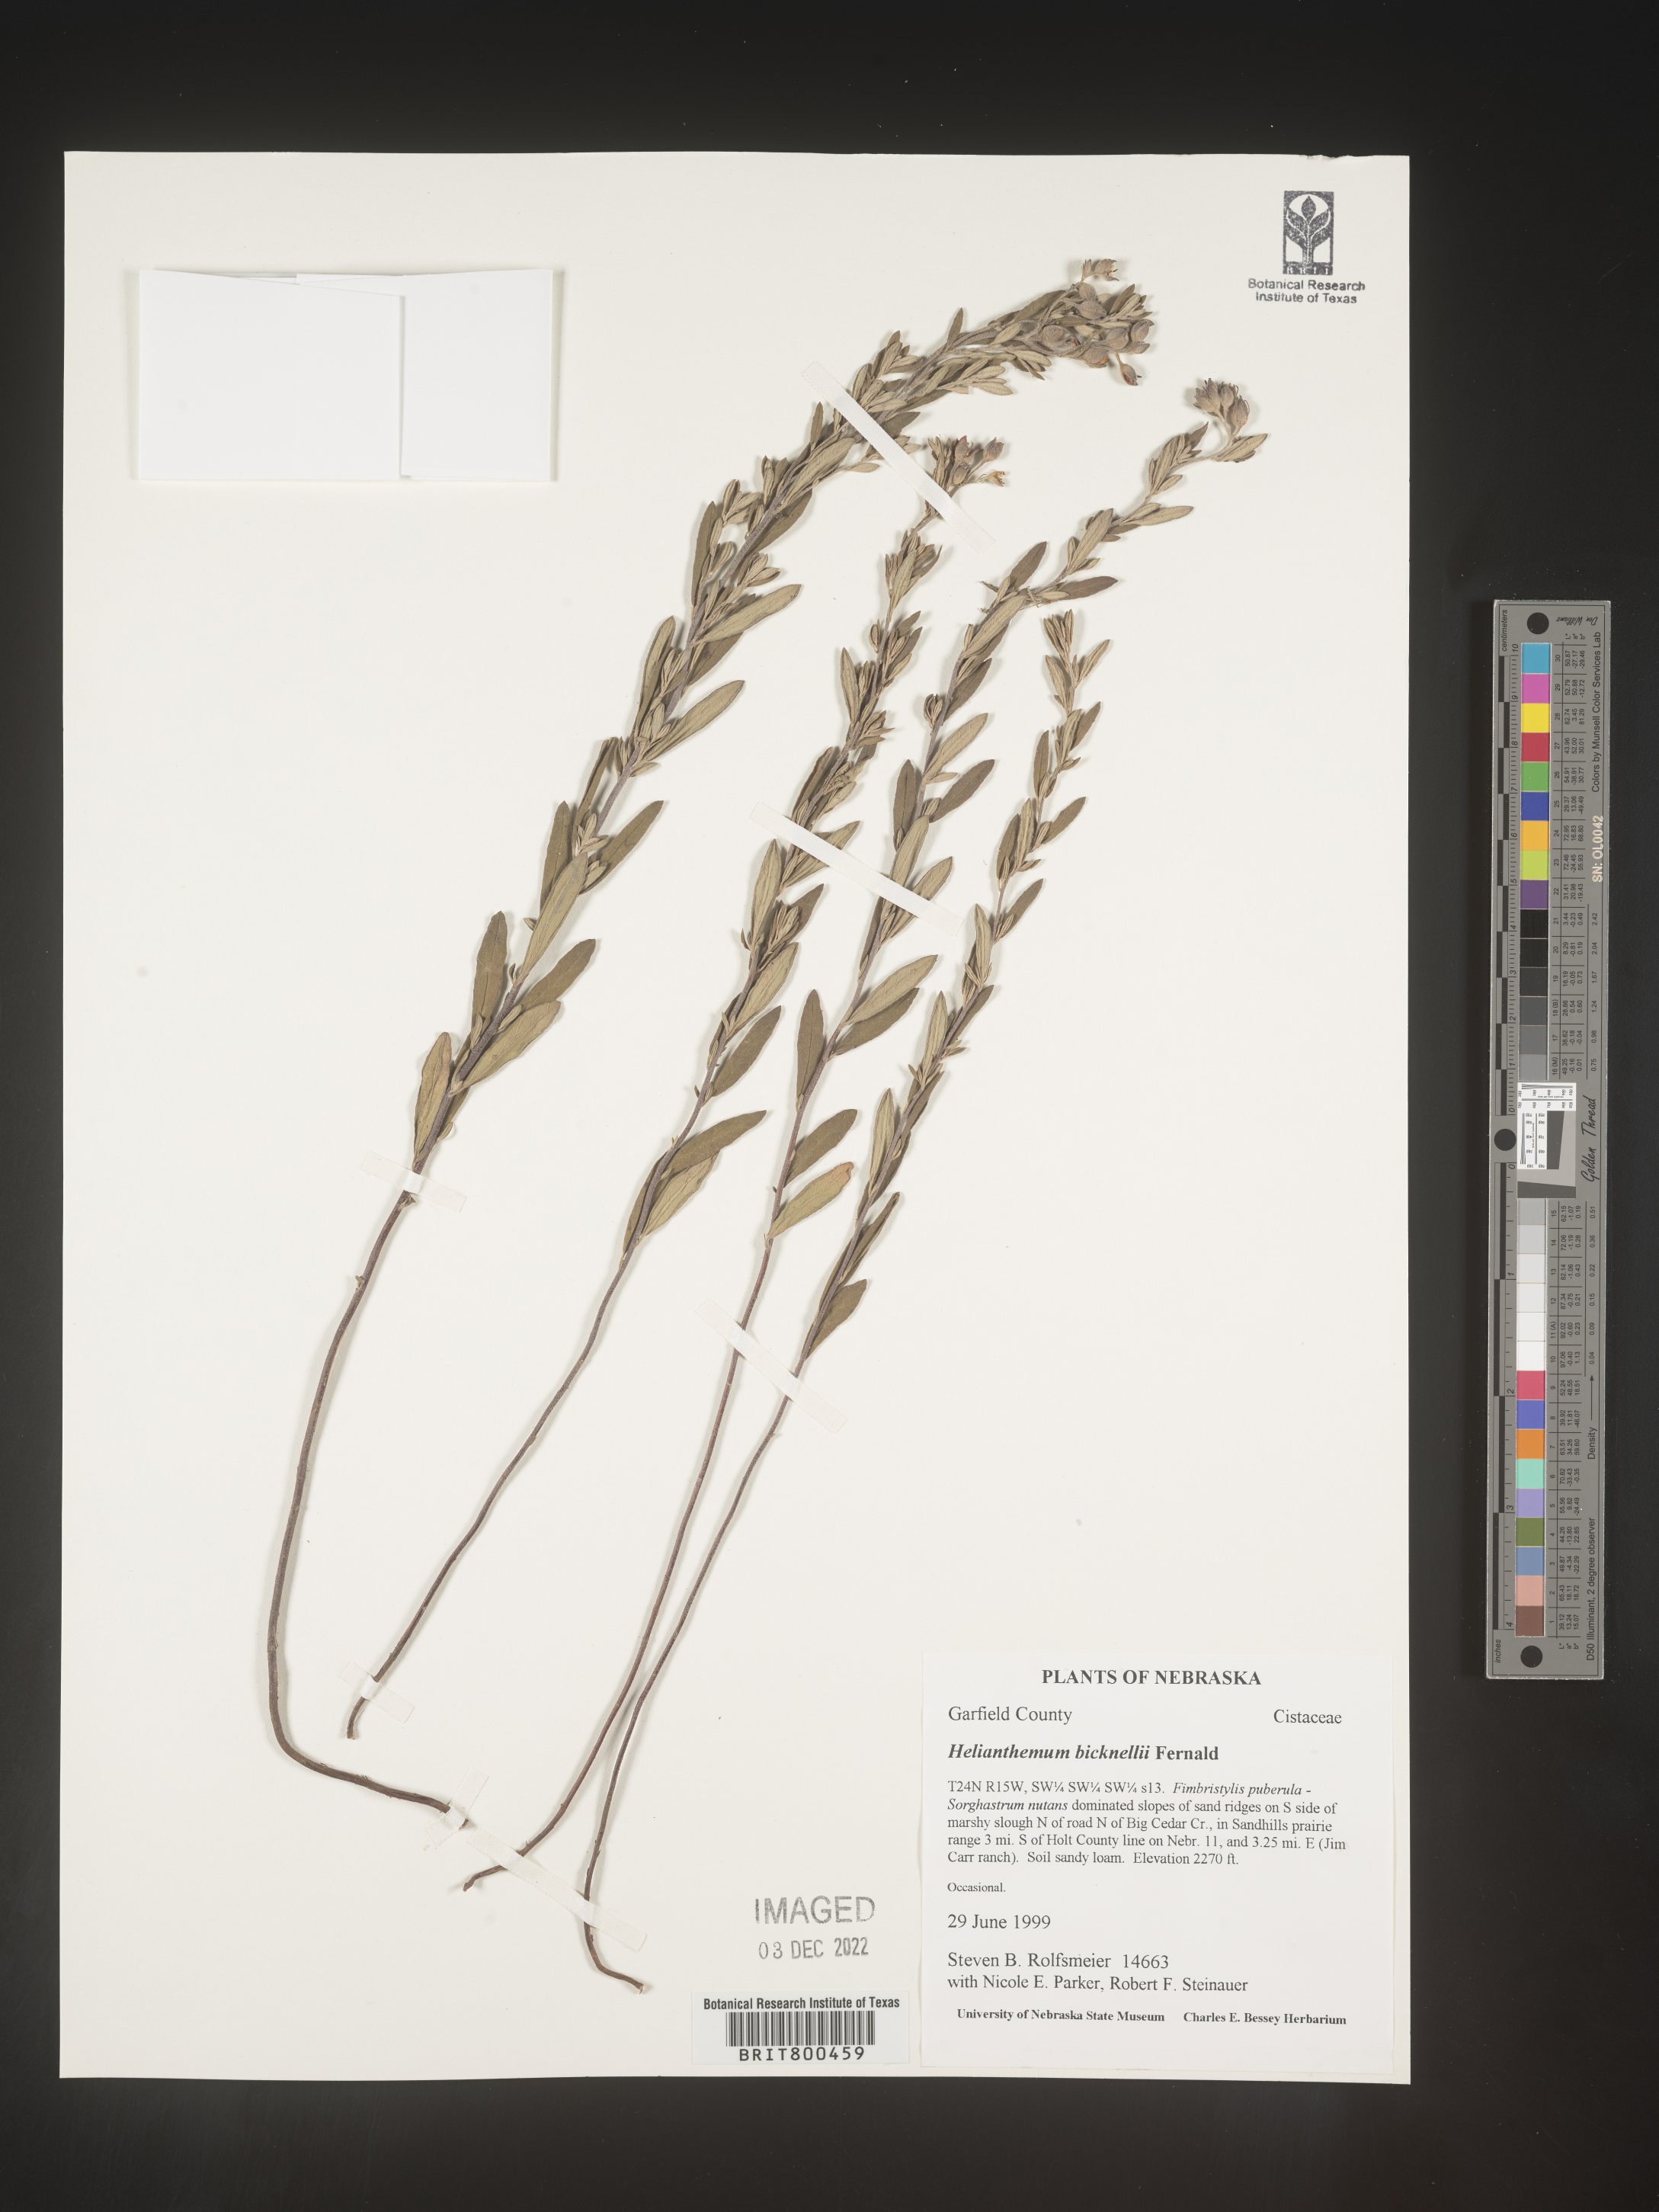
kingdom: Plantae
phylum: Tracheophyta
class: Magnoliopsida
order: Malvales
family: Cistaceae
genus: Helianthemum
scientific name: Helianthemum
